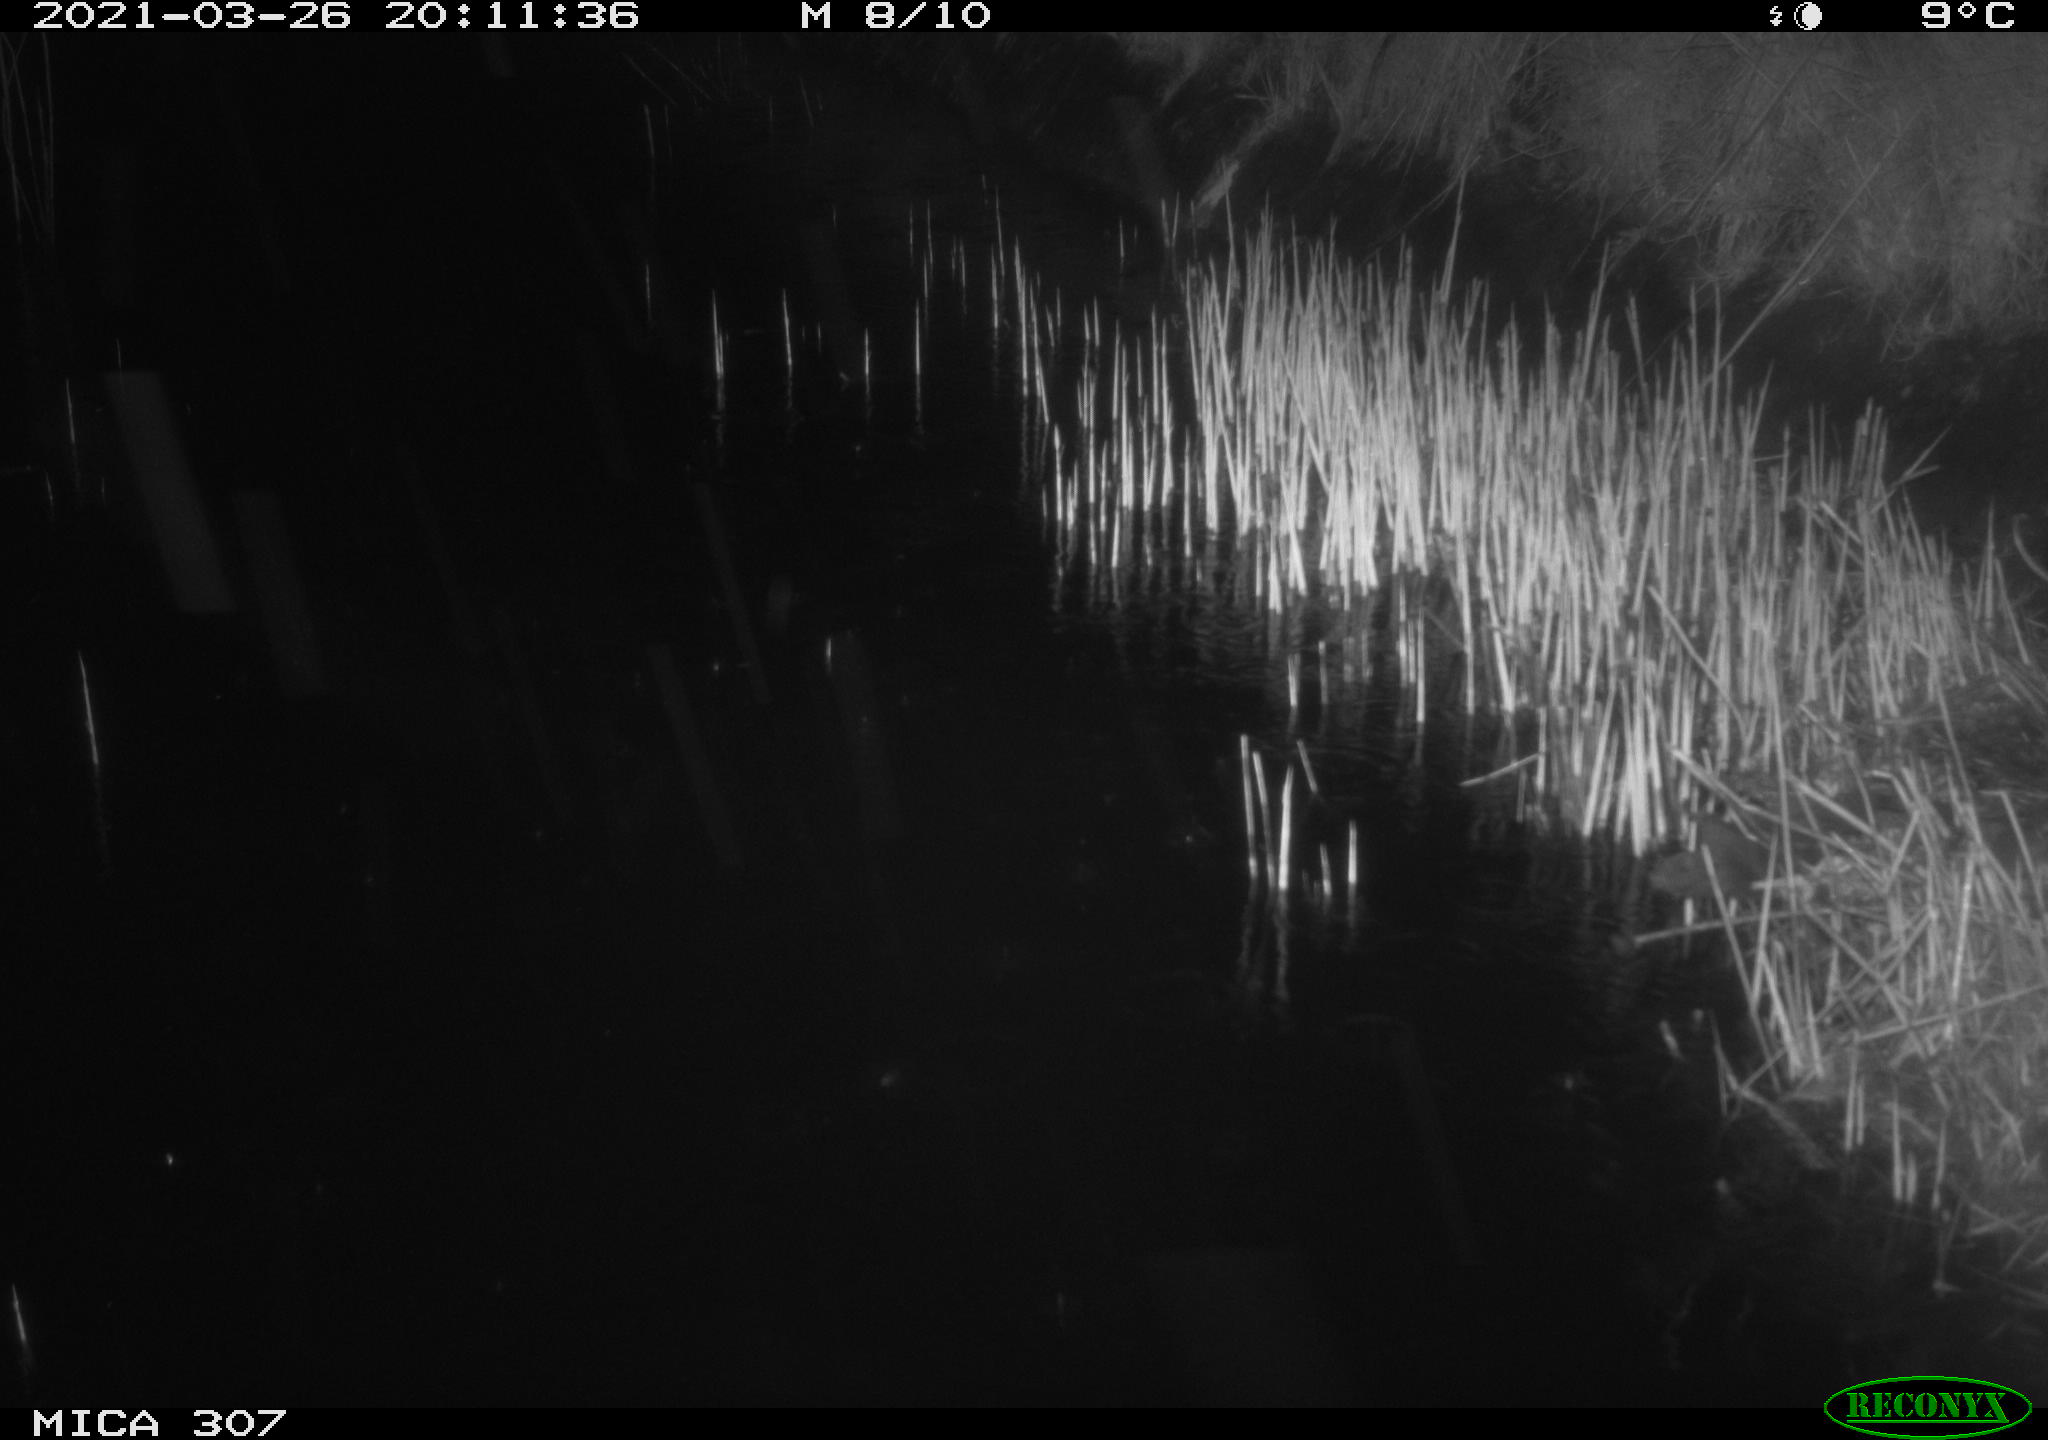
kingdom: Animalia
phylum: Chordata
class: Mammalia
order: Rodentia
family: Muridae
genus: Rattus
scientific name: Rattus norvegicus
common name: Brown rat
